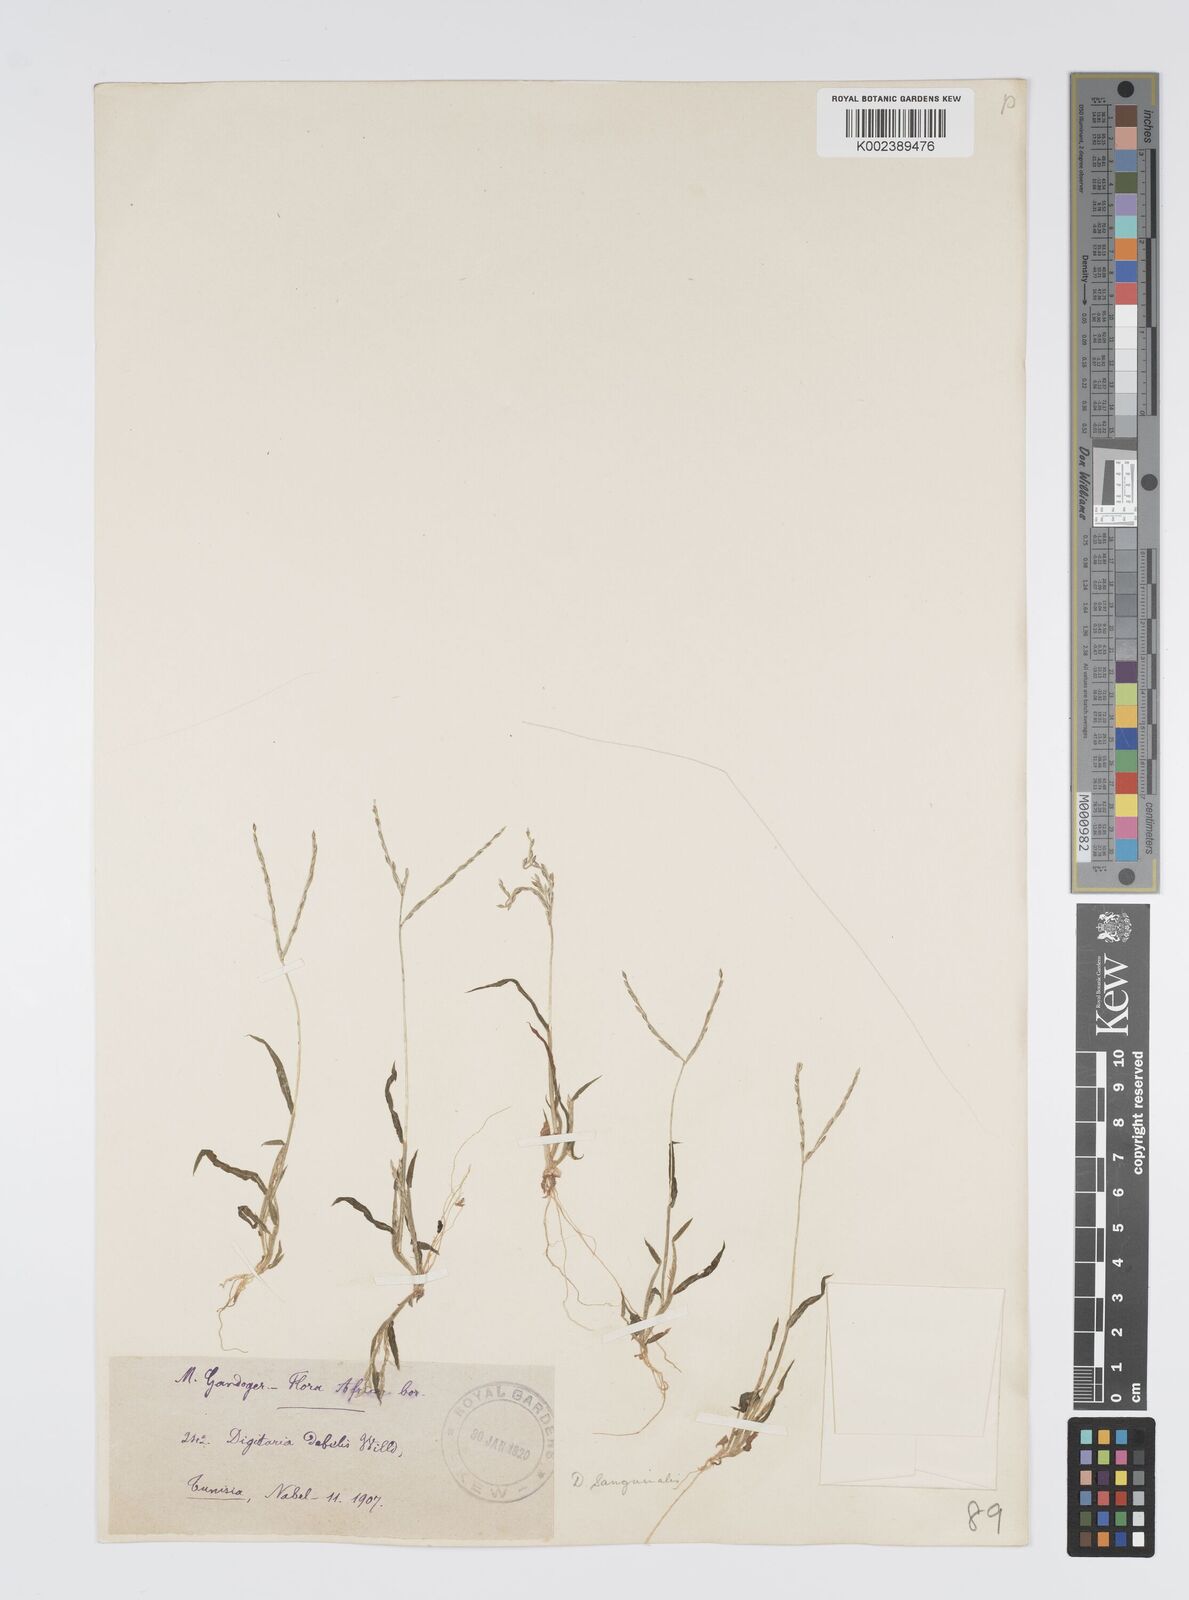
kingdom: Plantae
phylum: Tracheophyta
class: Liliopsida
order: Poales
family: Poaceae
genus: Digitaria
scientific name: Digitaria nuda
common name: Naked crabgrass
